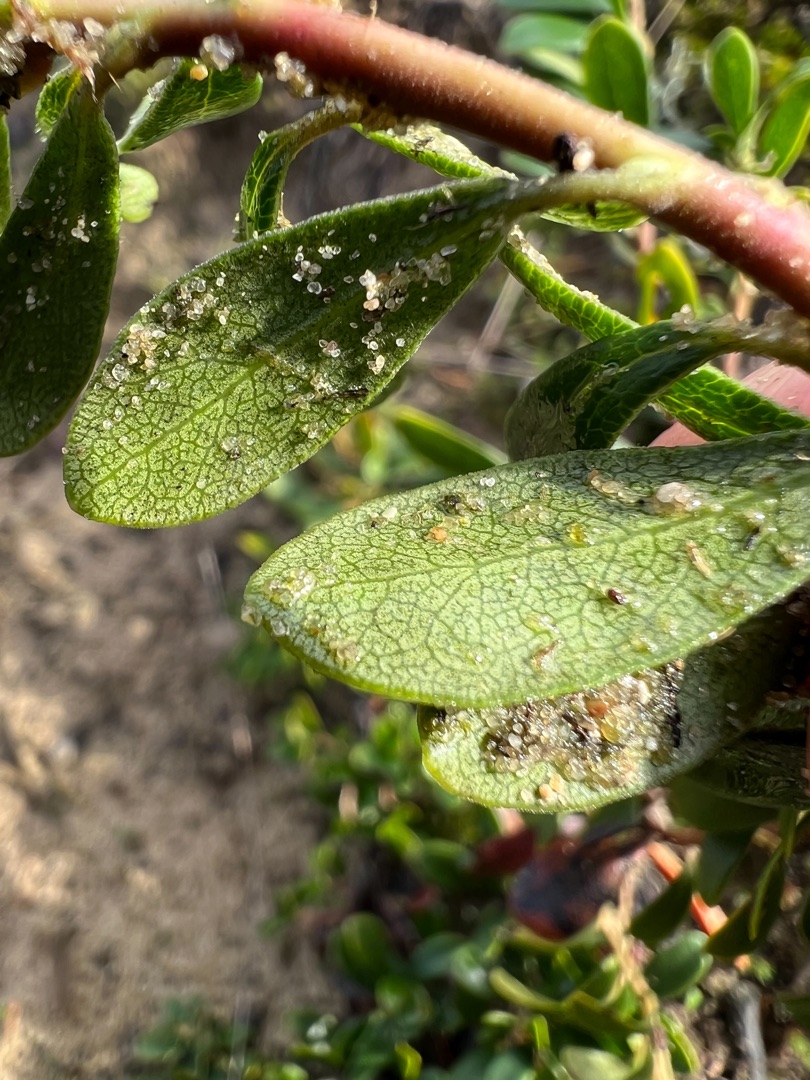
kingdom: Plantae
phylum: Tracheophyta
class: Magnoliopsida
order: Ericales
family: Ericaceae
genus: Arctostaphylos
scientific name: Arctostaphylos uva-ursi
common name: Hede-melbærris
